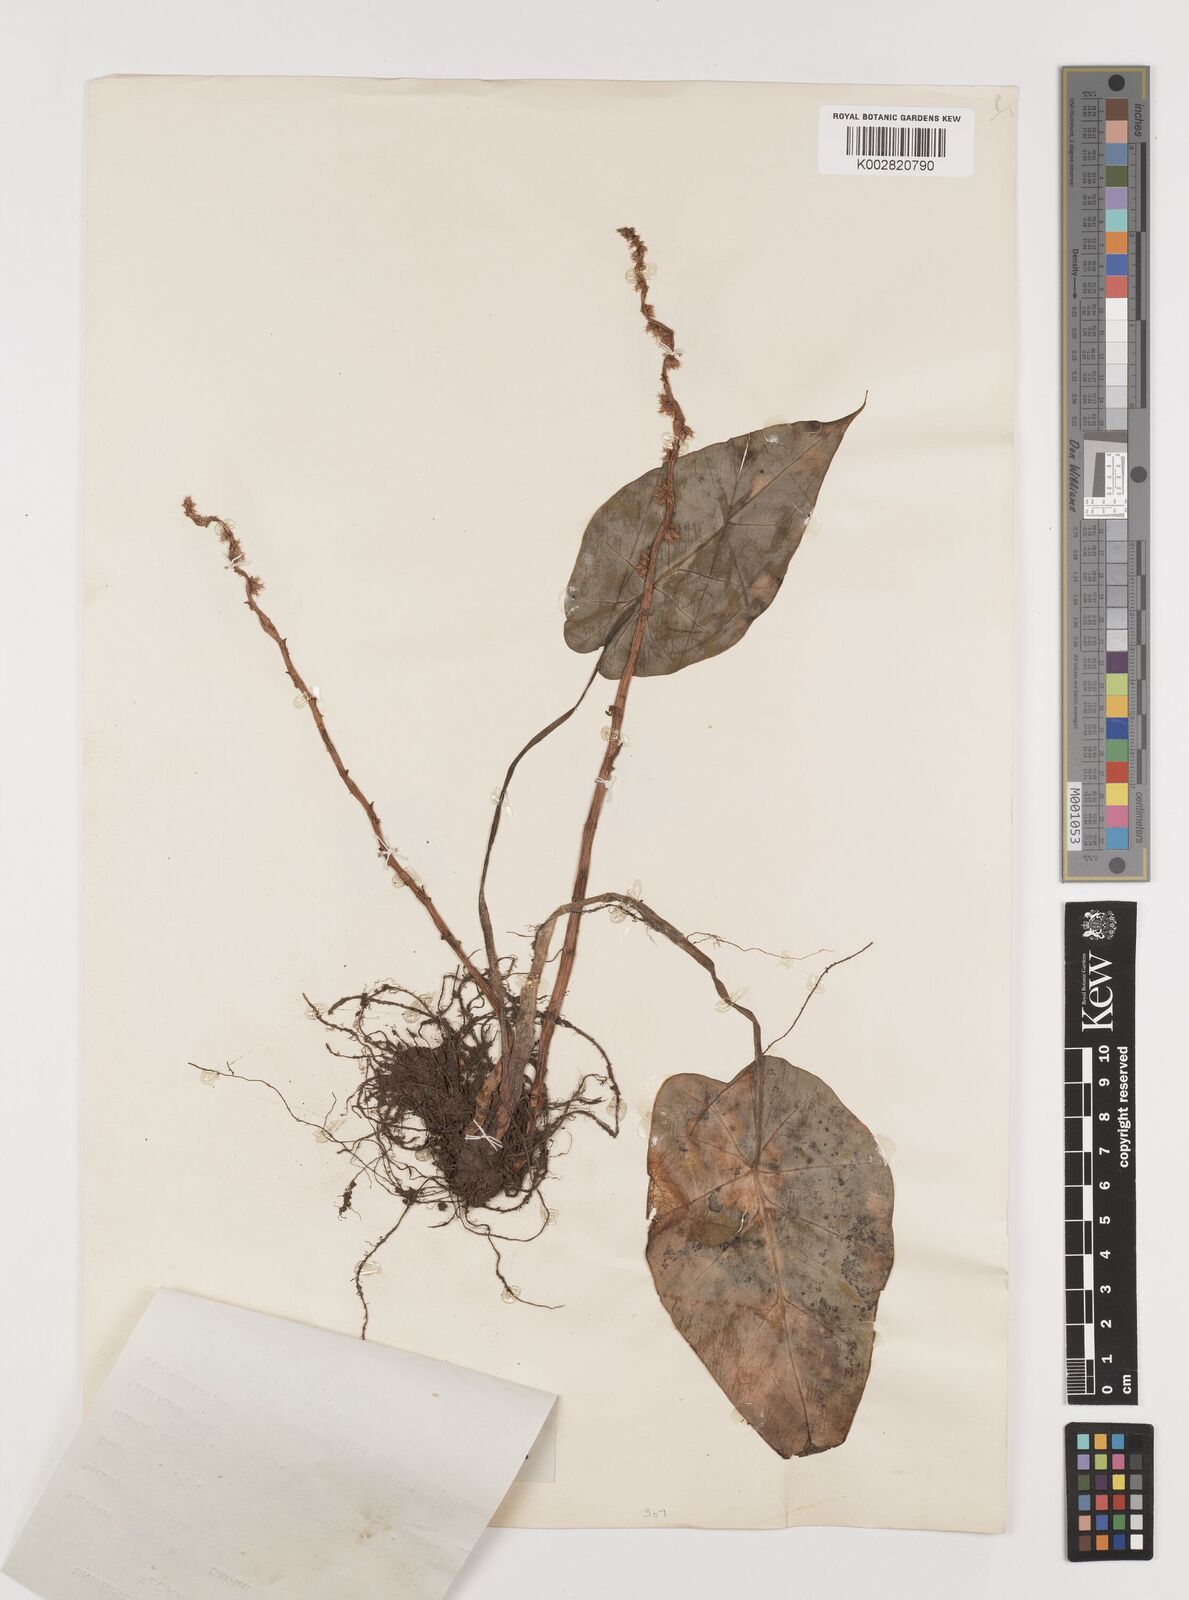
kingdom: Plantae
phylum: Tracheophyta
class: Liliopsida
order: Alismatales
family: Araceae
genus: Remusatia
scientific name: Remusatia vivipara
